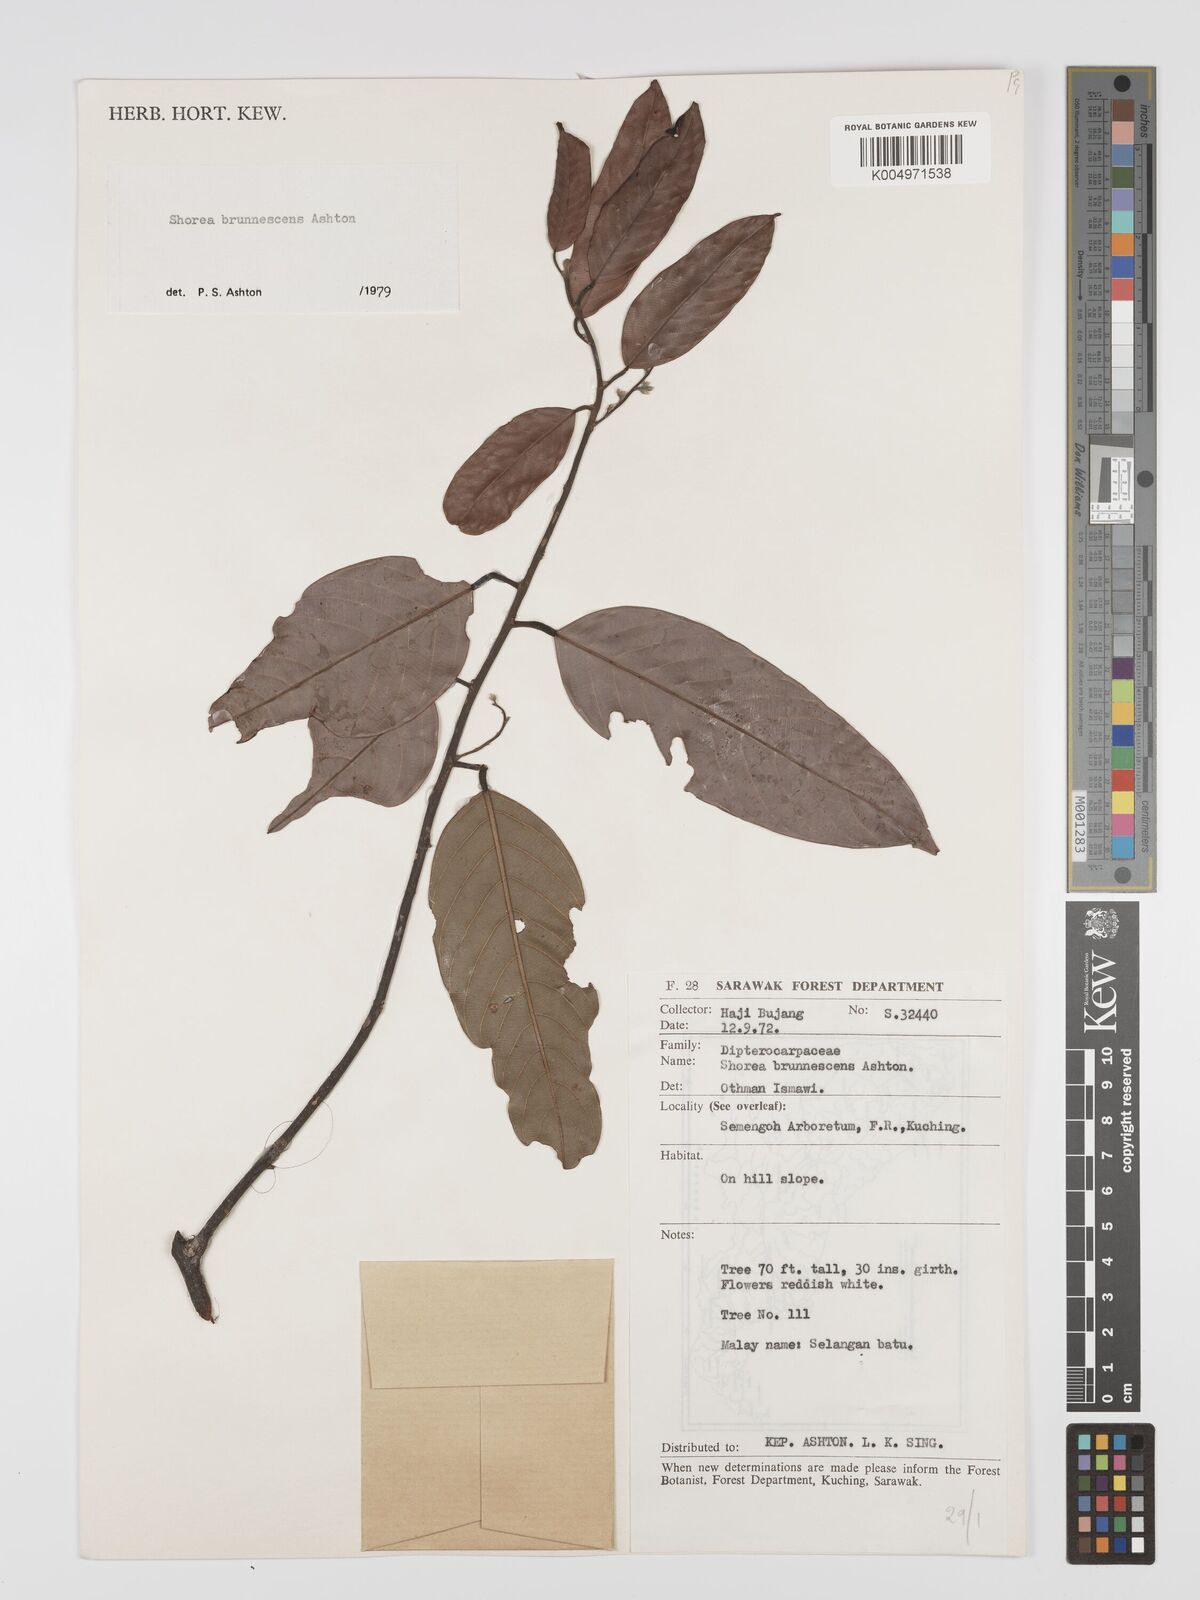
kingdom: Plantae
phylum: Tracheophyta
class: Magnoliopsida
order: Malvales
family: Dipterocarpaceae
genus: Shorea
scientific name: Shorea brunnescens
